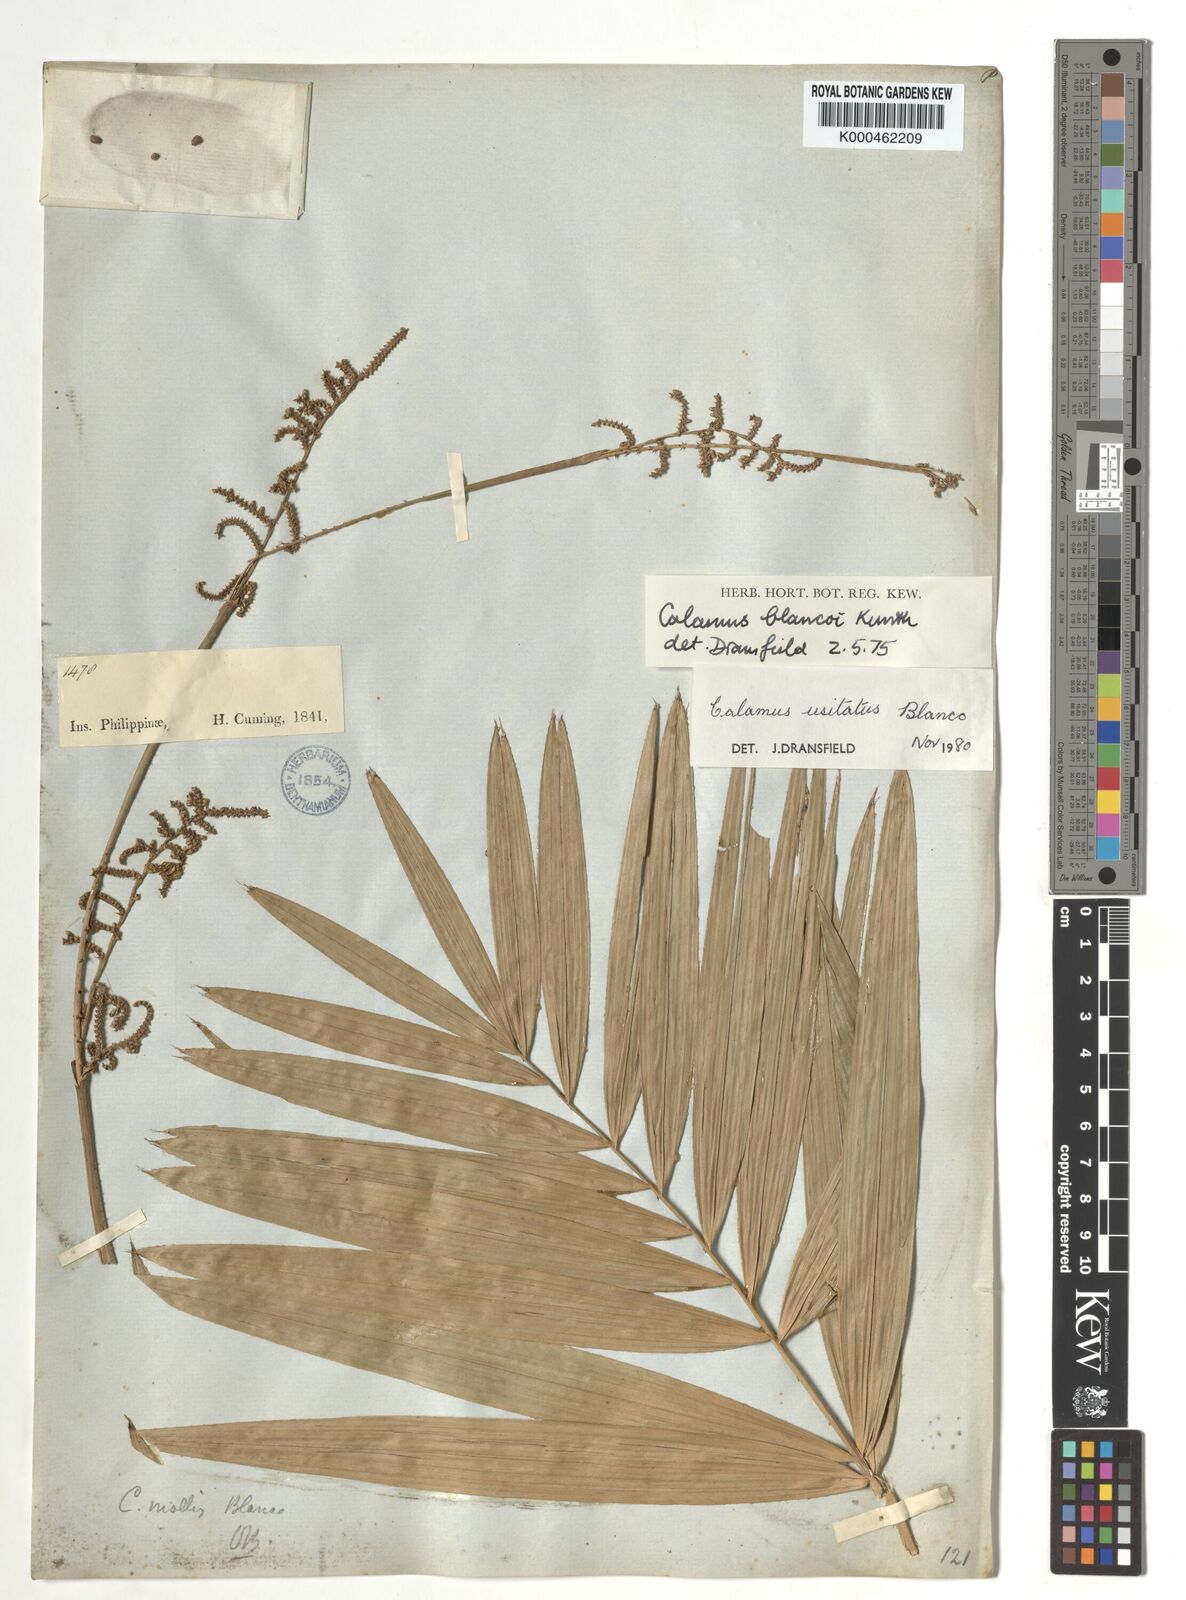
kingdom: Plantae
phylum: Tracheophyta
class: Liliopsida
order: Arecales
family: Arecaceae
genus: Calamus
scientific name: Calamus usitatus
